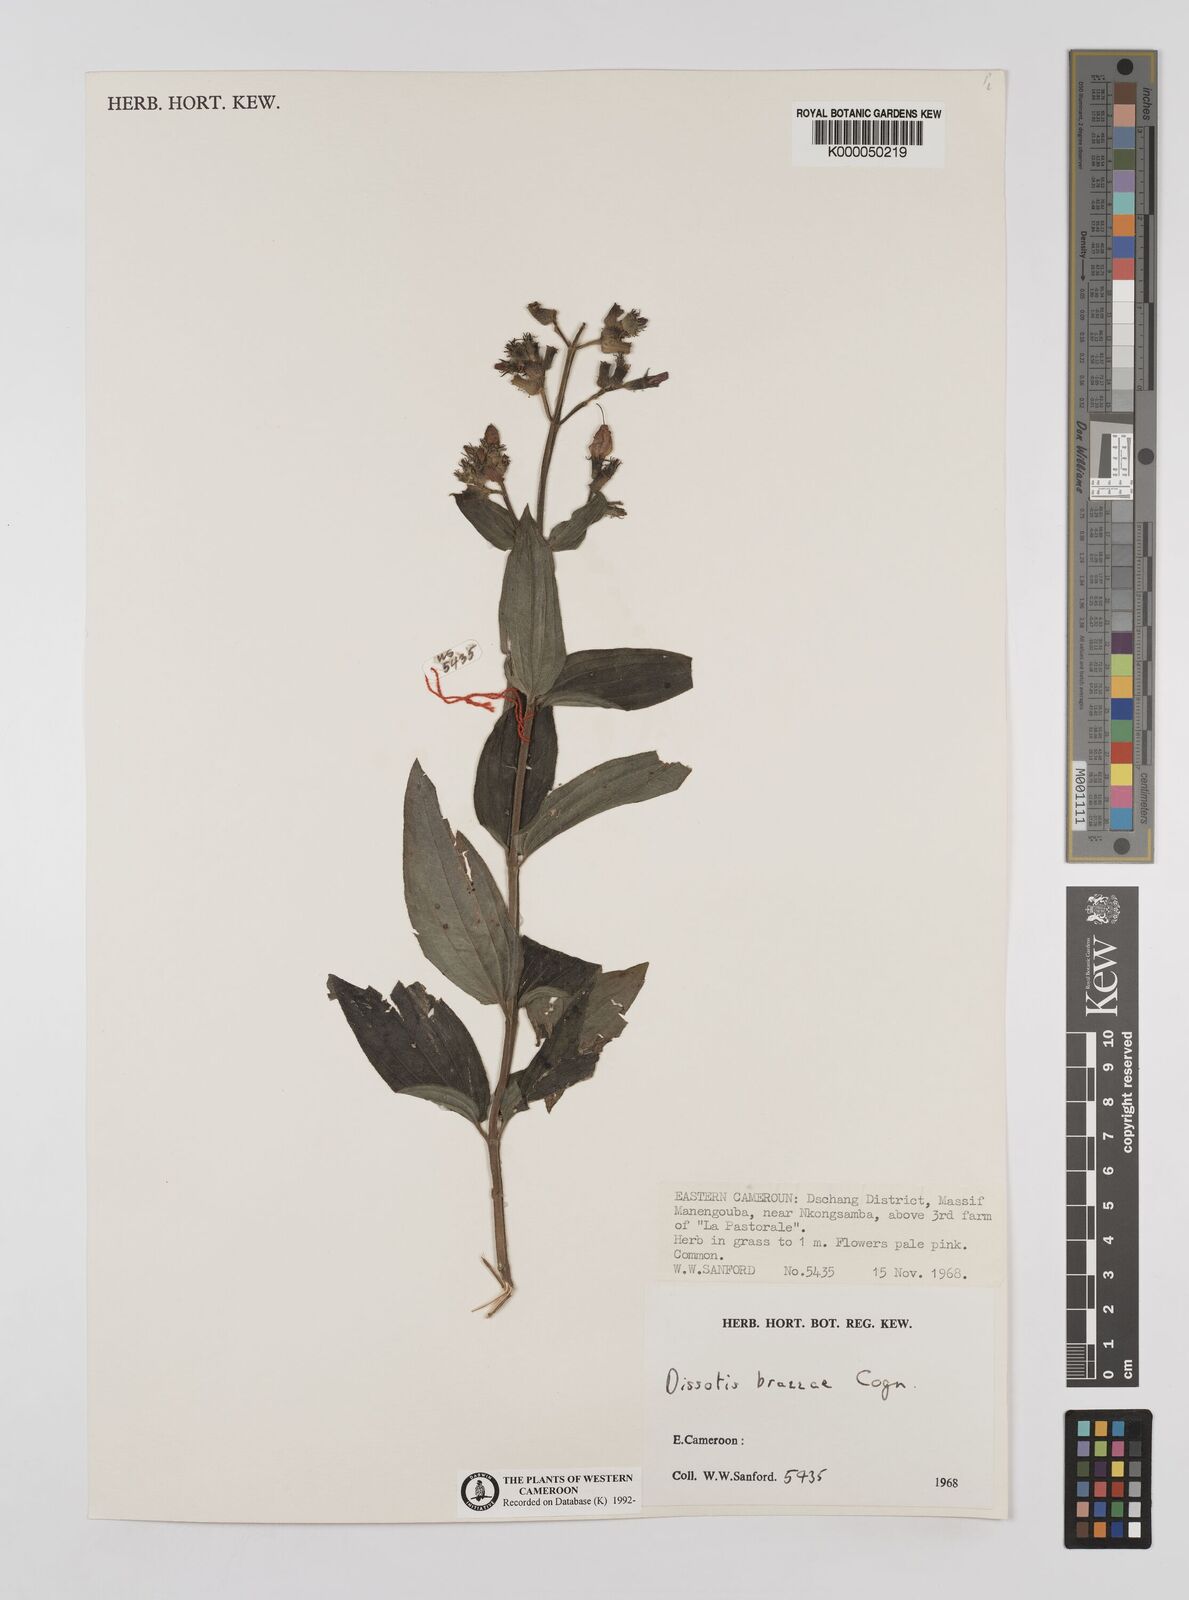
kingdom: Plantae
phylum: Tracheophyta
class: Magnoliopsida
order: Myrtales
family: Melastomataceae
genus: Dupineta
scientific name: Dupineta brazzae
